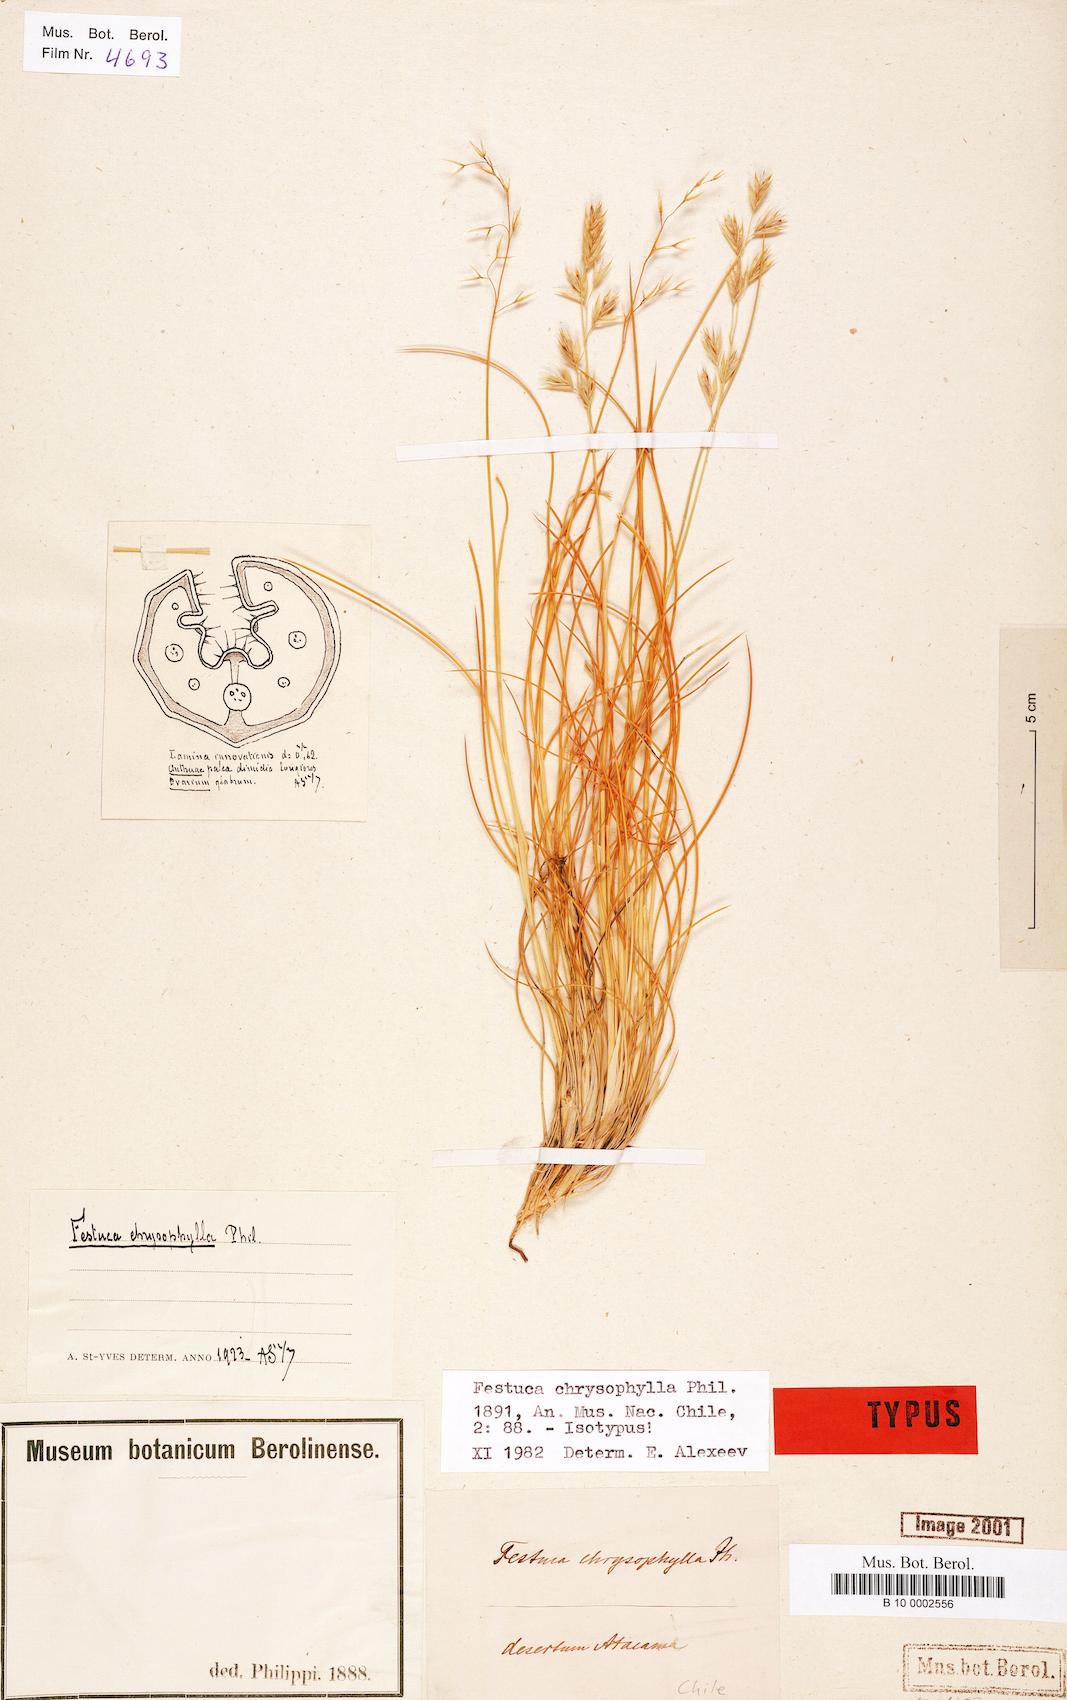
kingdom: Plantae
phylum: Tracheophyta
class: Liliopsida
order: Poales
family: Poaceae
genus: Festuca
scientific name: Festuca chrysophylla
